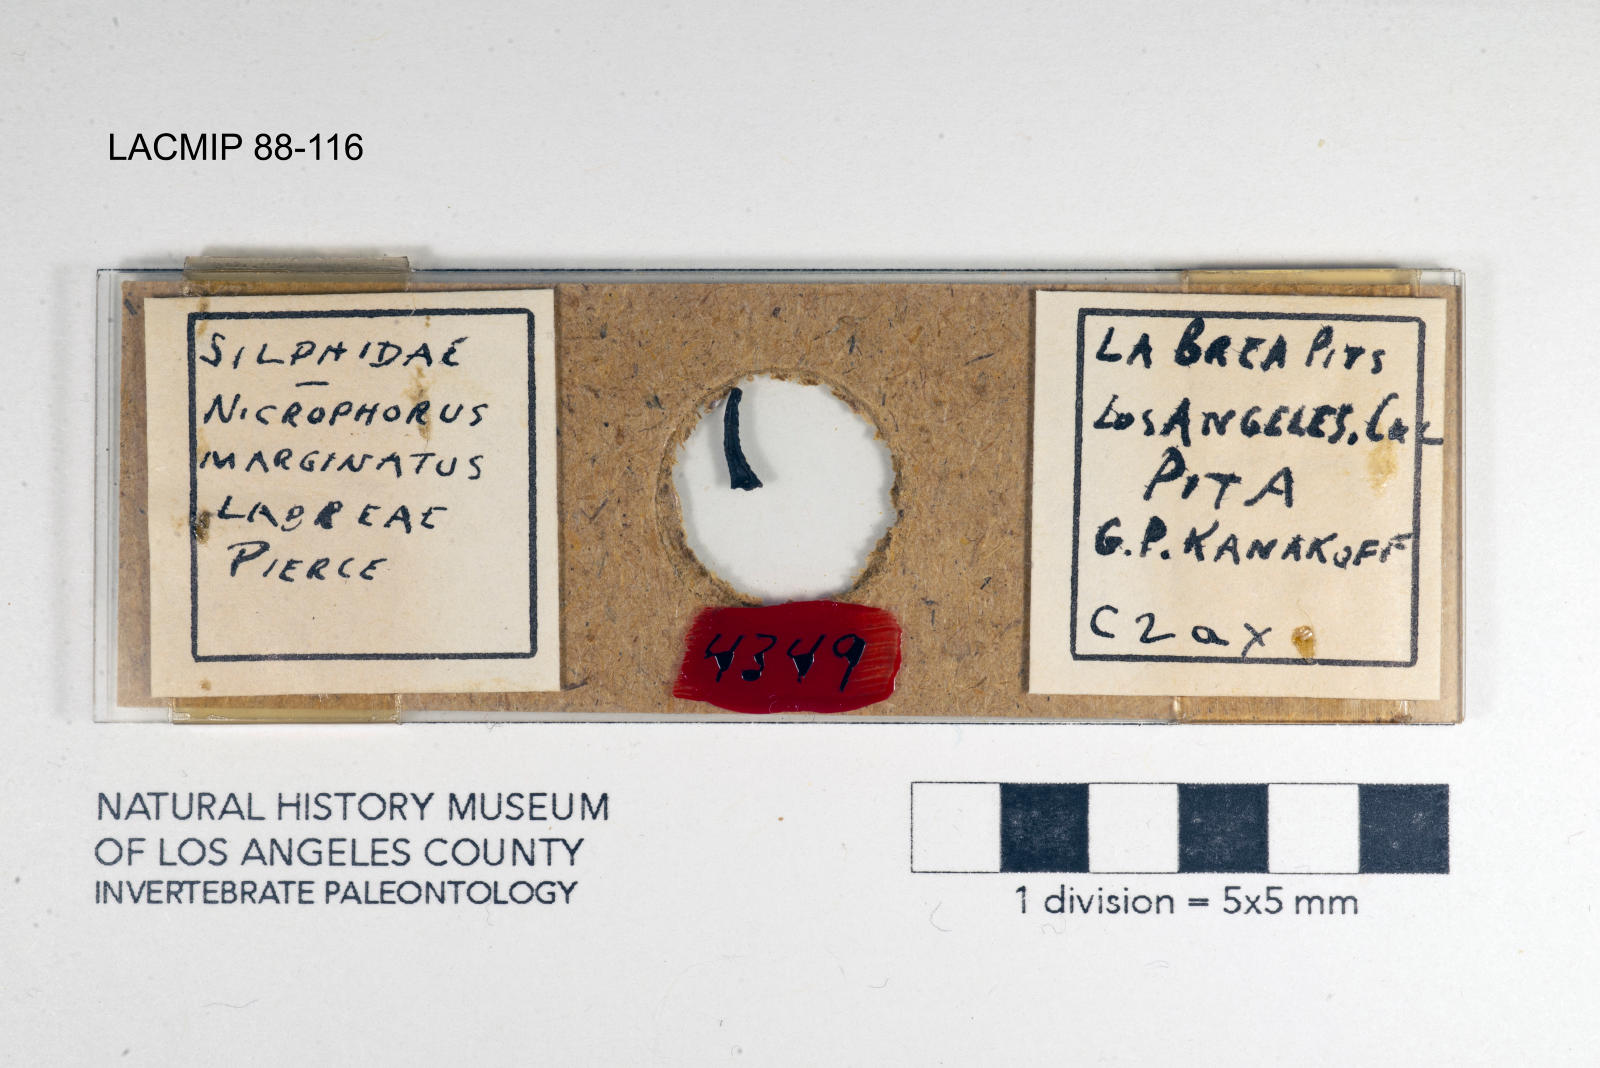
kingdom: Animalia
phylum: Arthropoda
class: Insecta
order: Coleoptera
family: Staphylinidae
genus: Nicrophorus
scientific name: Nicrophorus marginatus
